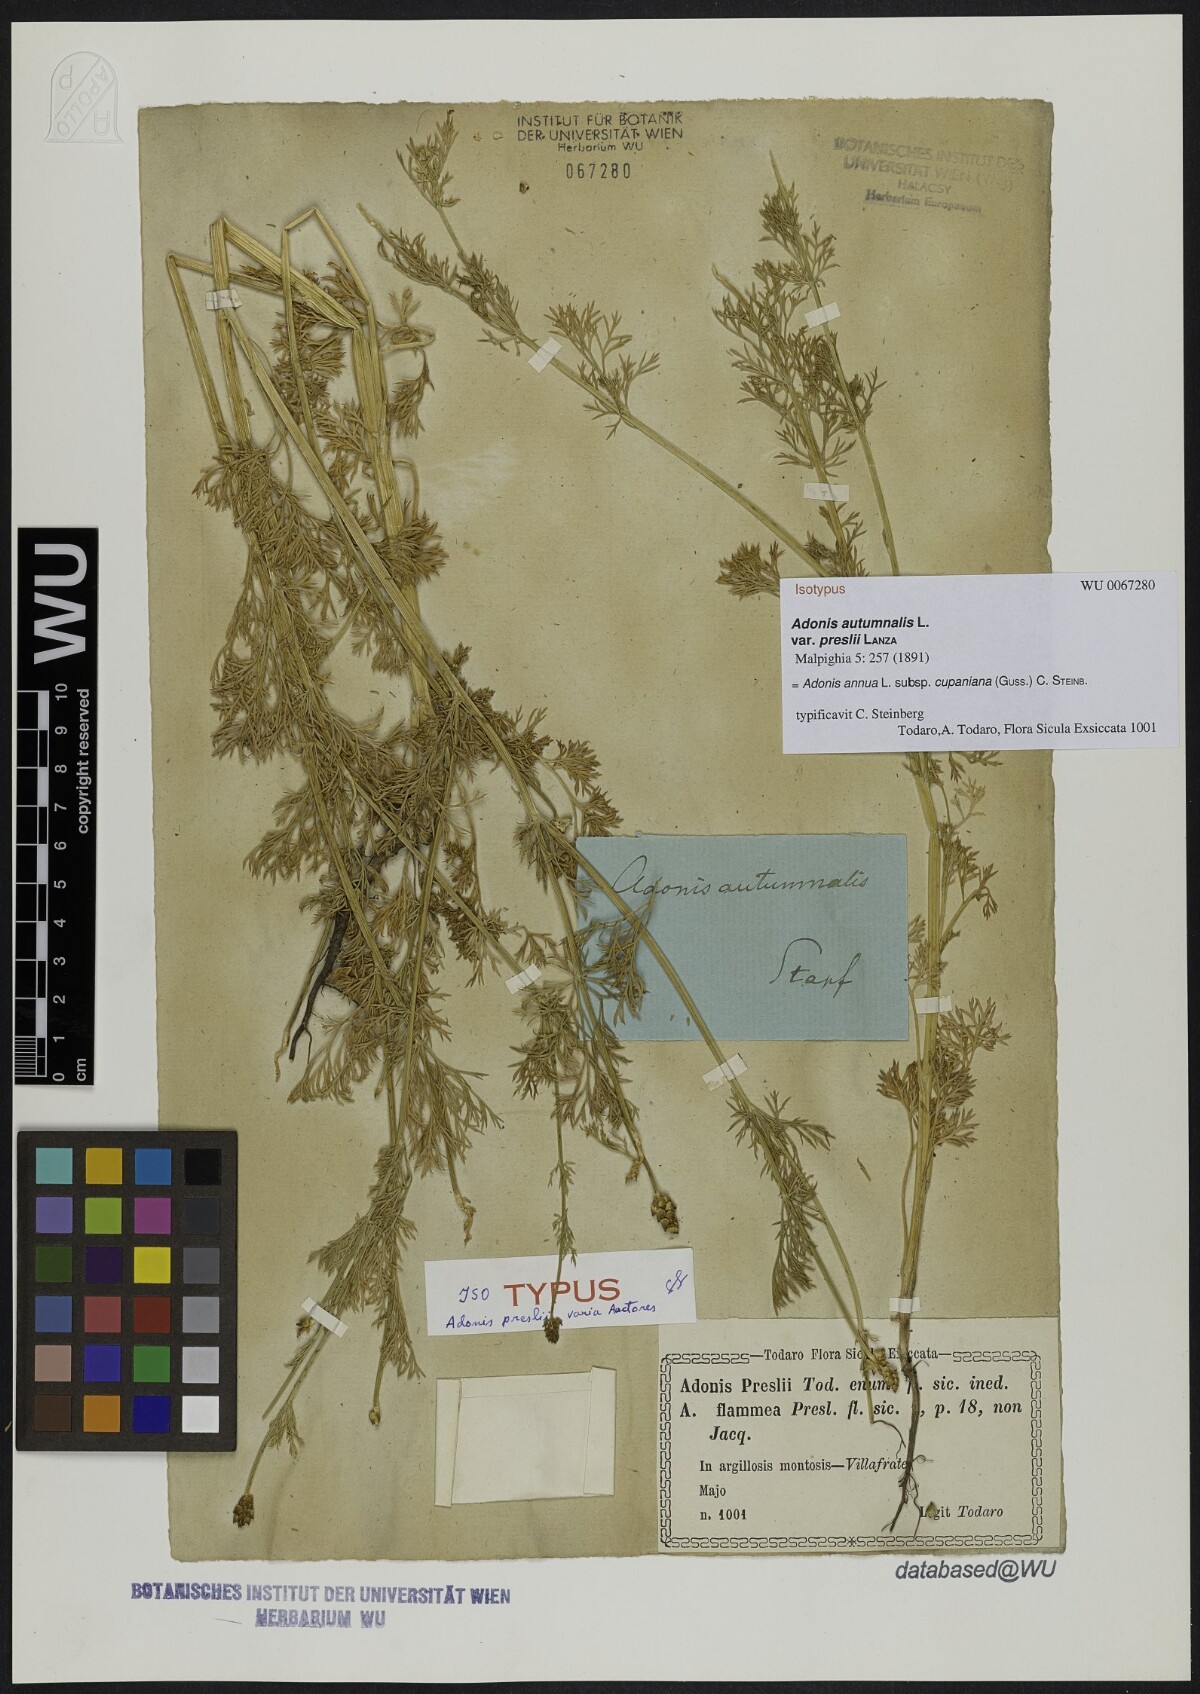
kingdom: Plantae
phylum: Tracheophyta
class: Magnoliopsida
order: Ranunculales
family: Ranunculaceae
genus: Adonis
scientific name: Adonis
